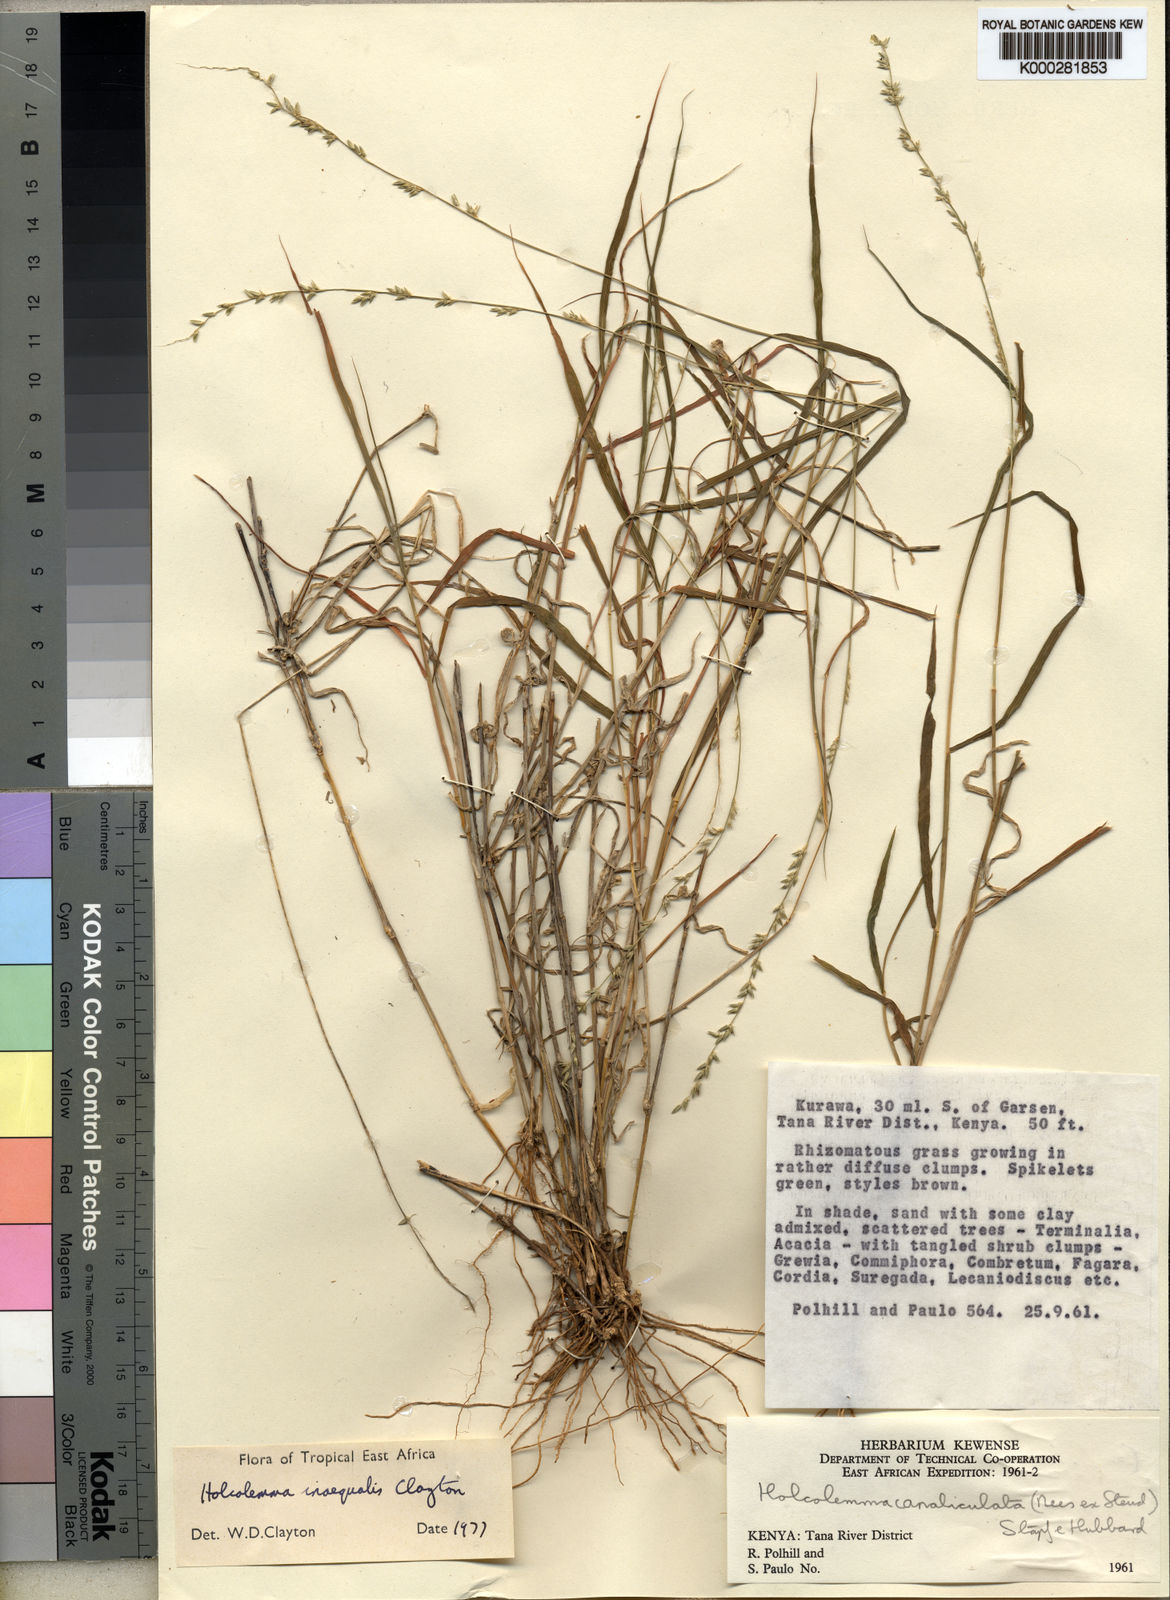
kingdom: Plantae
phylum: Tracheophyta
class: Liliopsida
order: Poales
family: Poaceae
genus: Holcolemma
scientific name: Holcolemma
